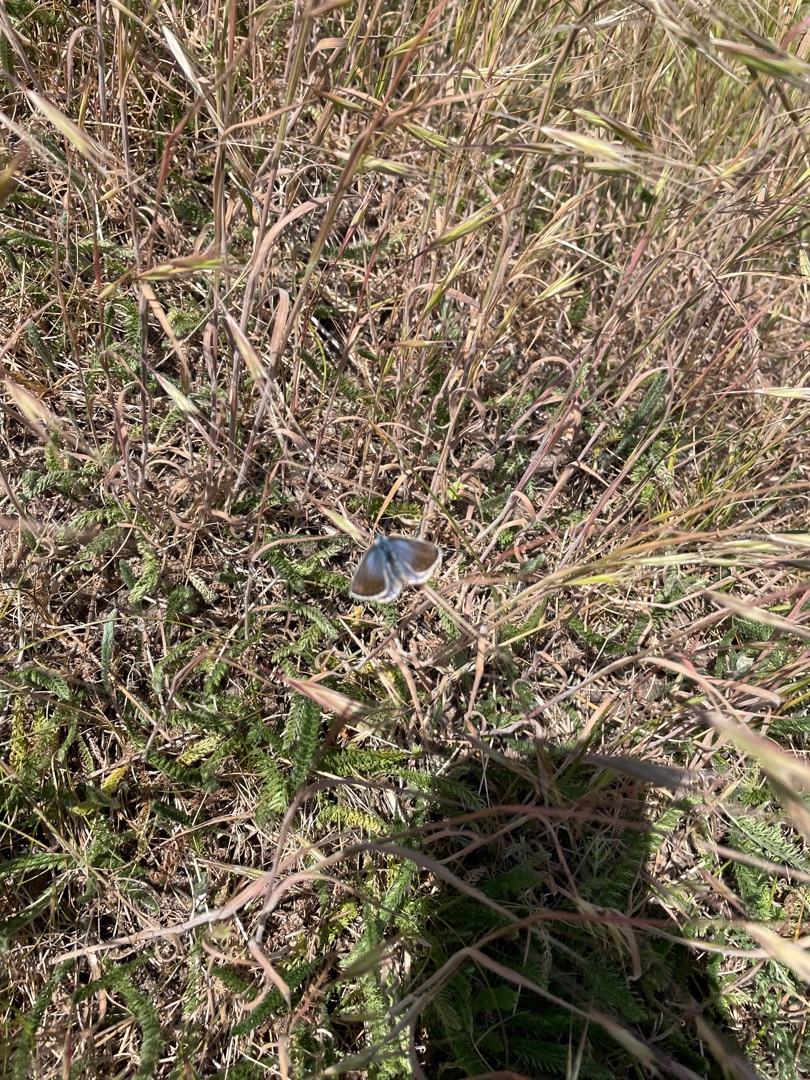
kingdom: Animalia
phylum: Arthropoda
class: Insecta
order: Lepidoptera
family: Lycaenidae
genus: Polyommatus
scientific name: Polyommatus icarus
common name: Almindelig blåfugl
